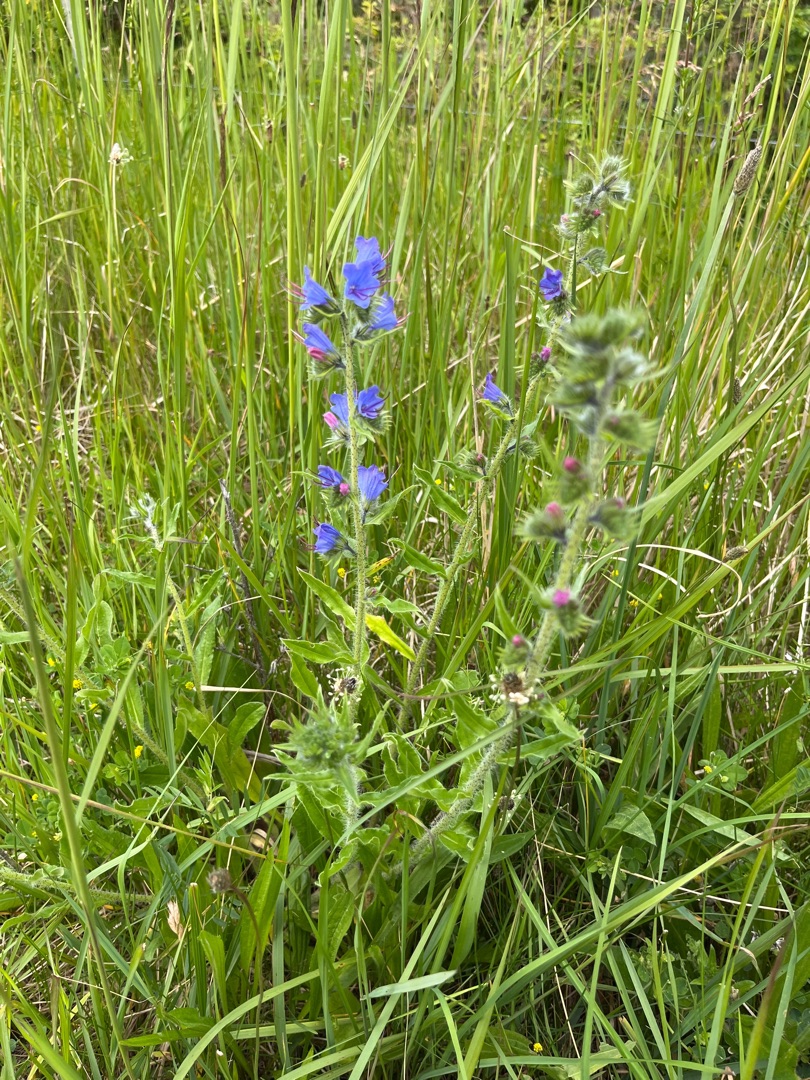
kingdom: Plantae
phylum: Tracheophyta
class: Magnoliopsida
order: Boraginales
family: Boraginaceae
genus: Echium
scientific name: Echium vulgare
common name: Slangehoved
